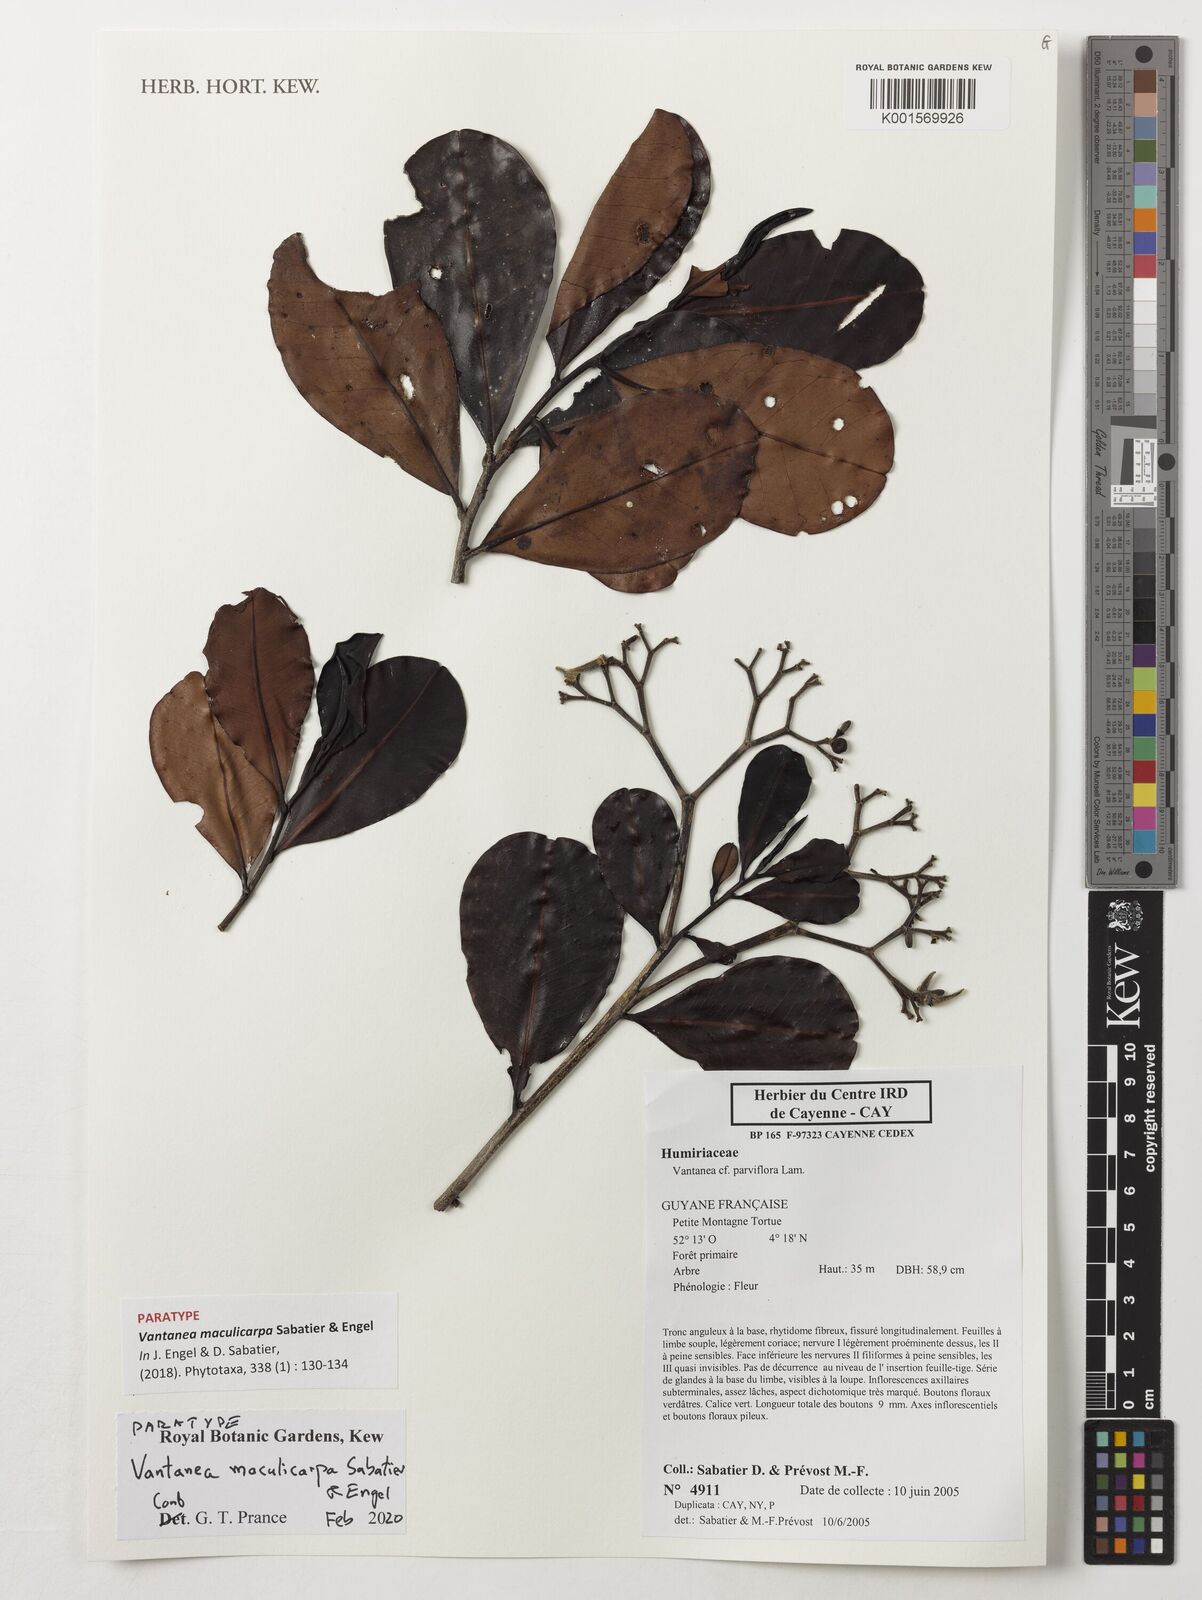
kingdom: Plantae
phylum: Tracheophyta
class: Magnoliopsida
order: Malpighiales
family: Humiriaceae
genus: Vantanea
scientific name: Vantanea maculicarpa
